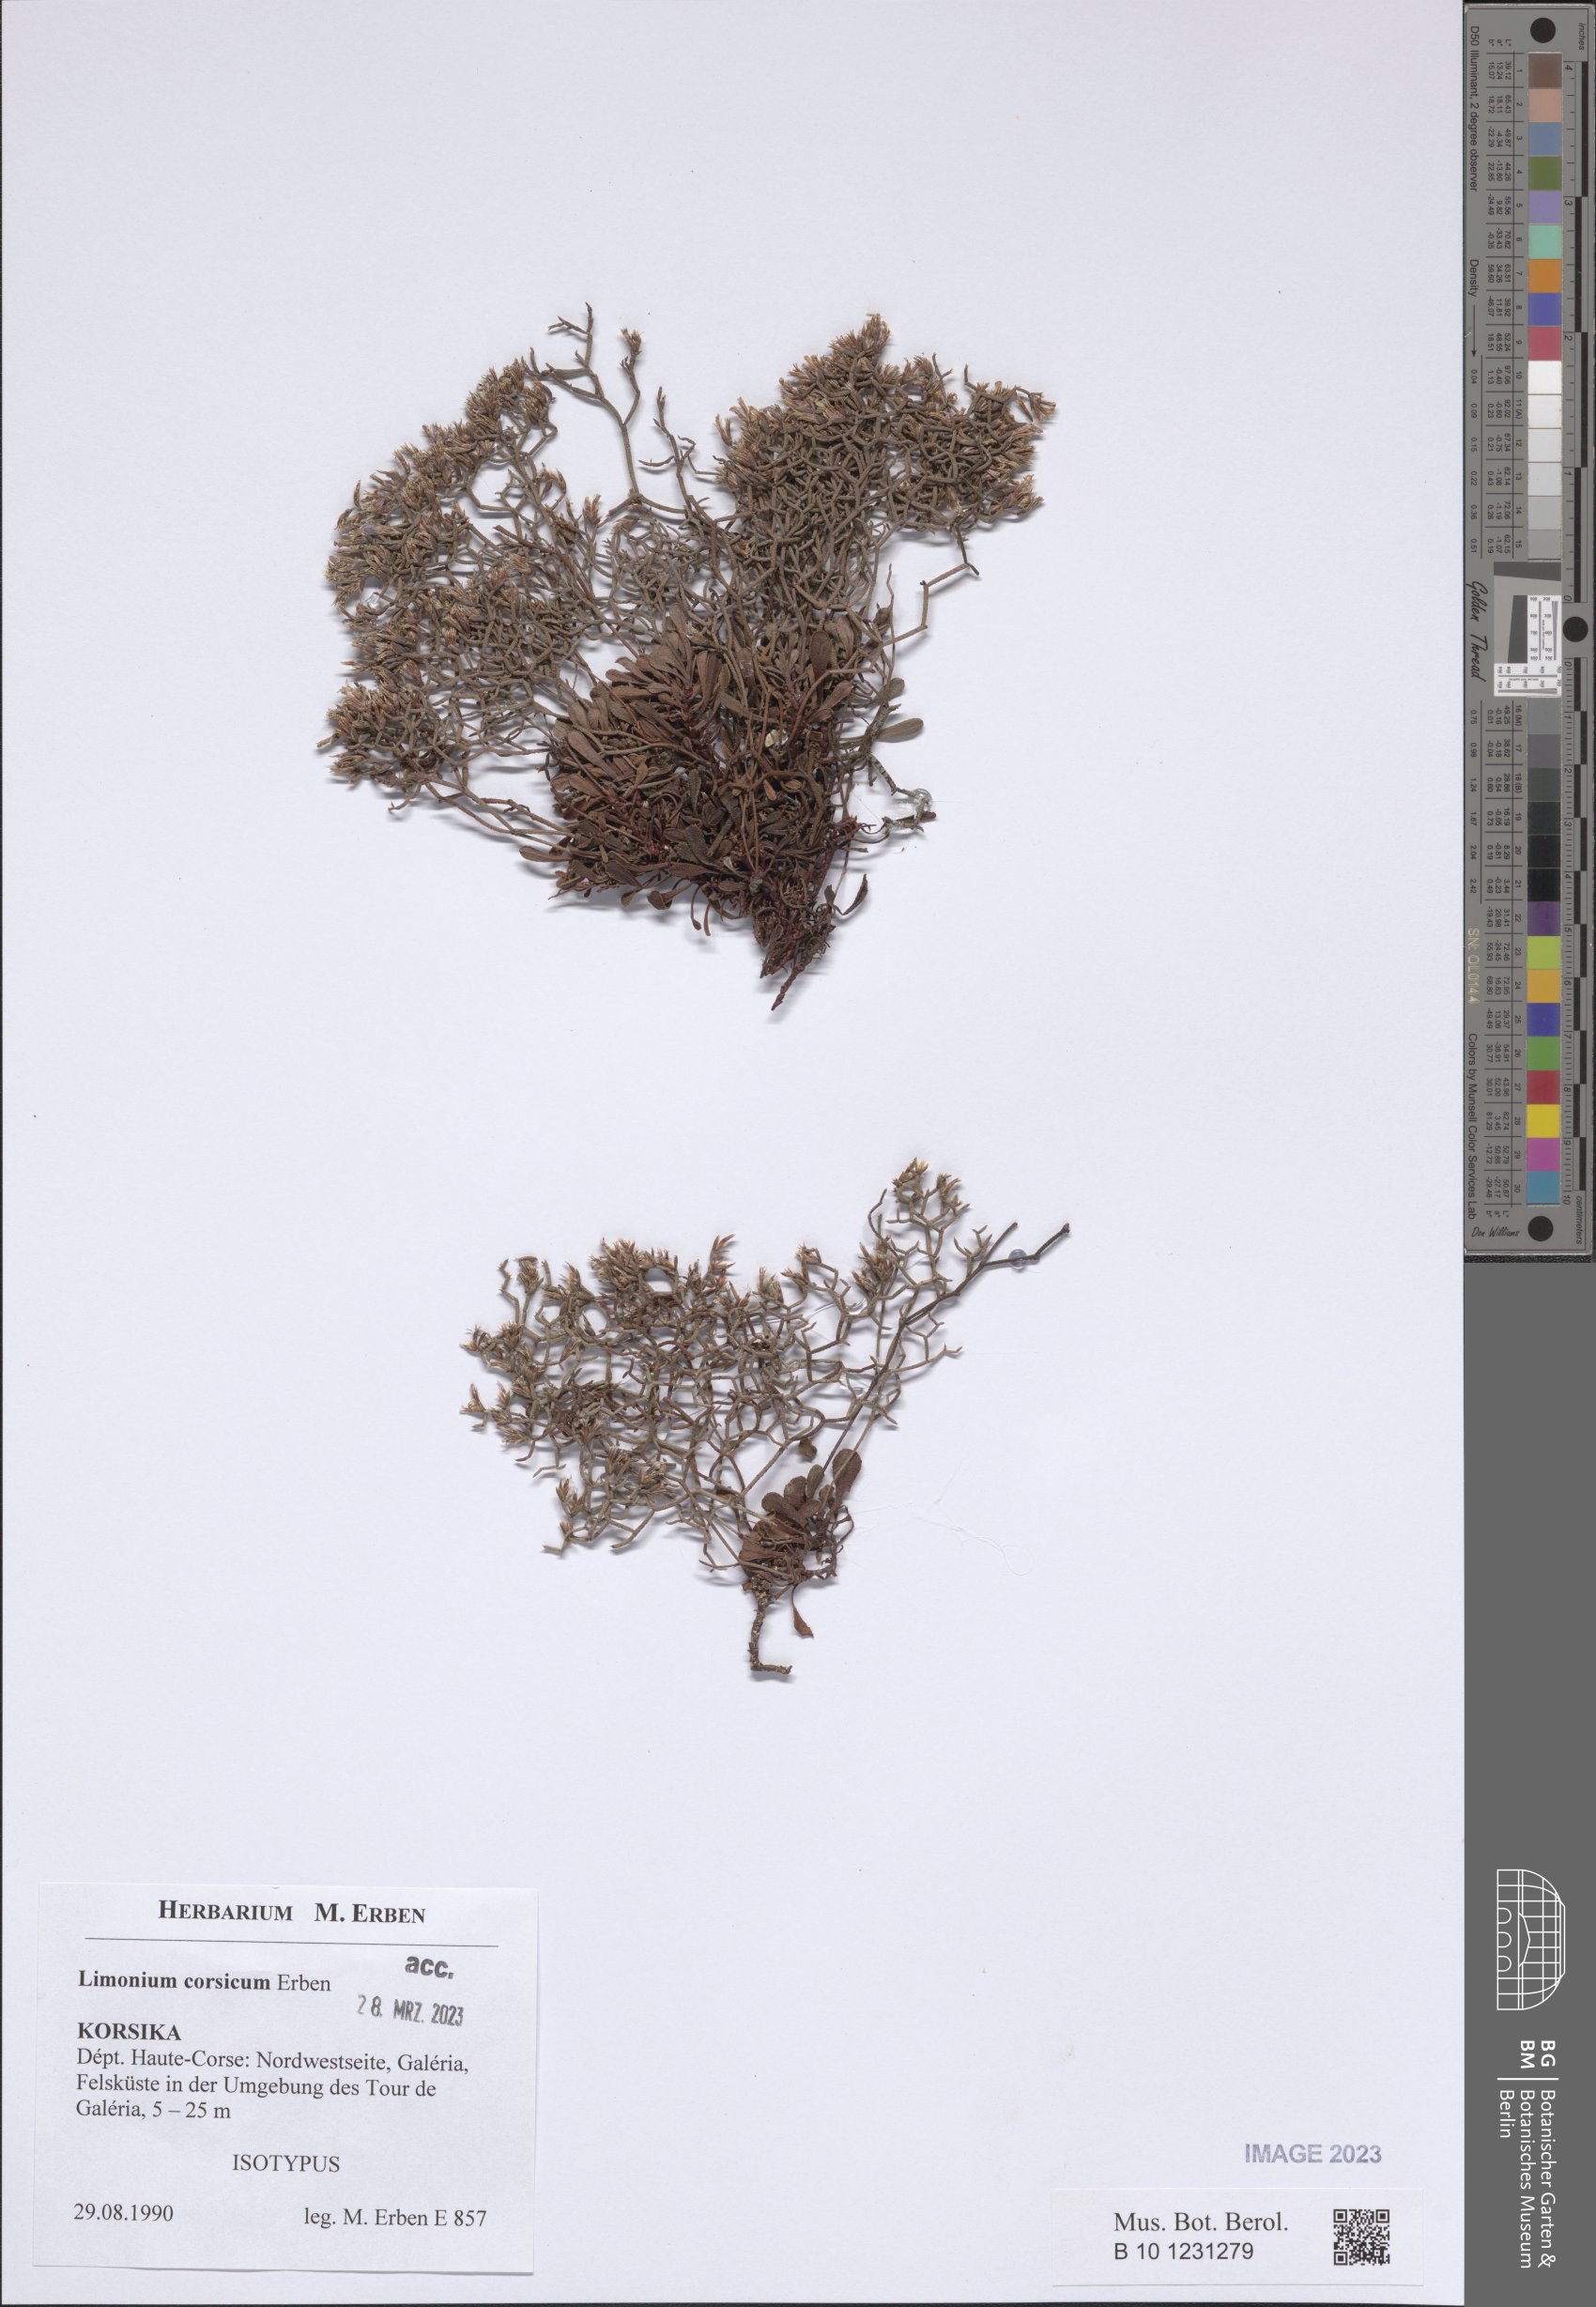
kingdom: Plantae
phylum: Tracheophyta
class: Magnoliopsida
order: Caryophyllales
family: Plumbaginaceae
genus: Limonium
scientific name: Limonium corsicum
